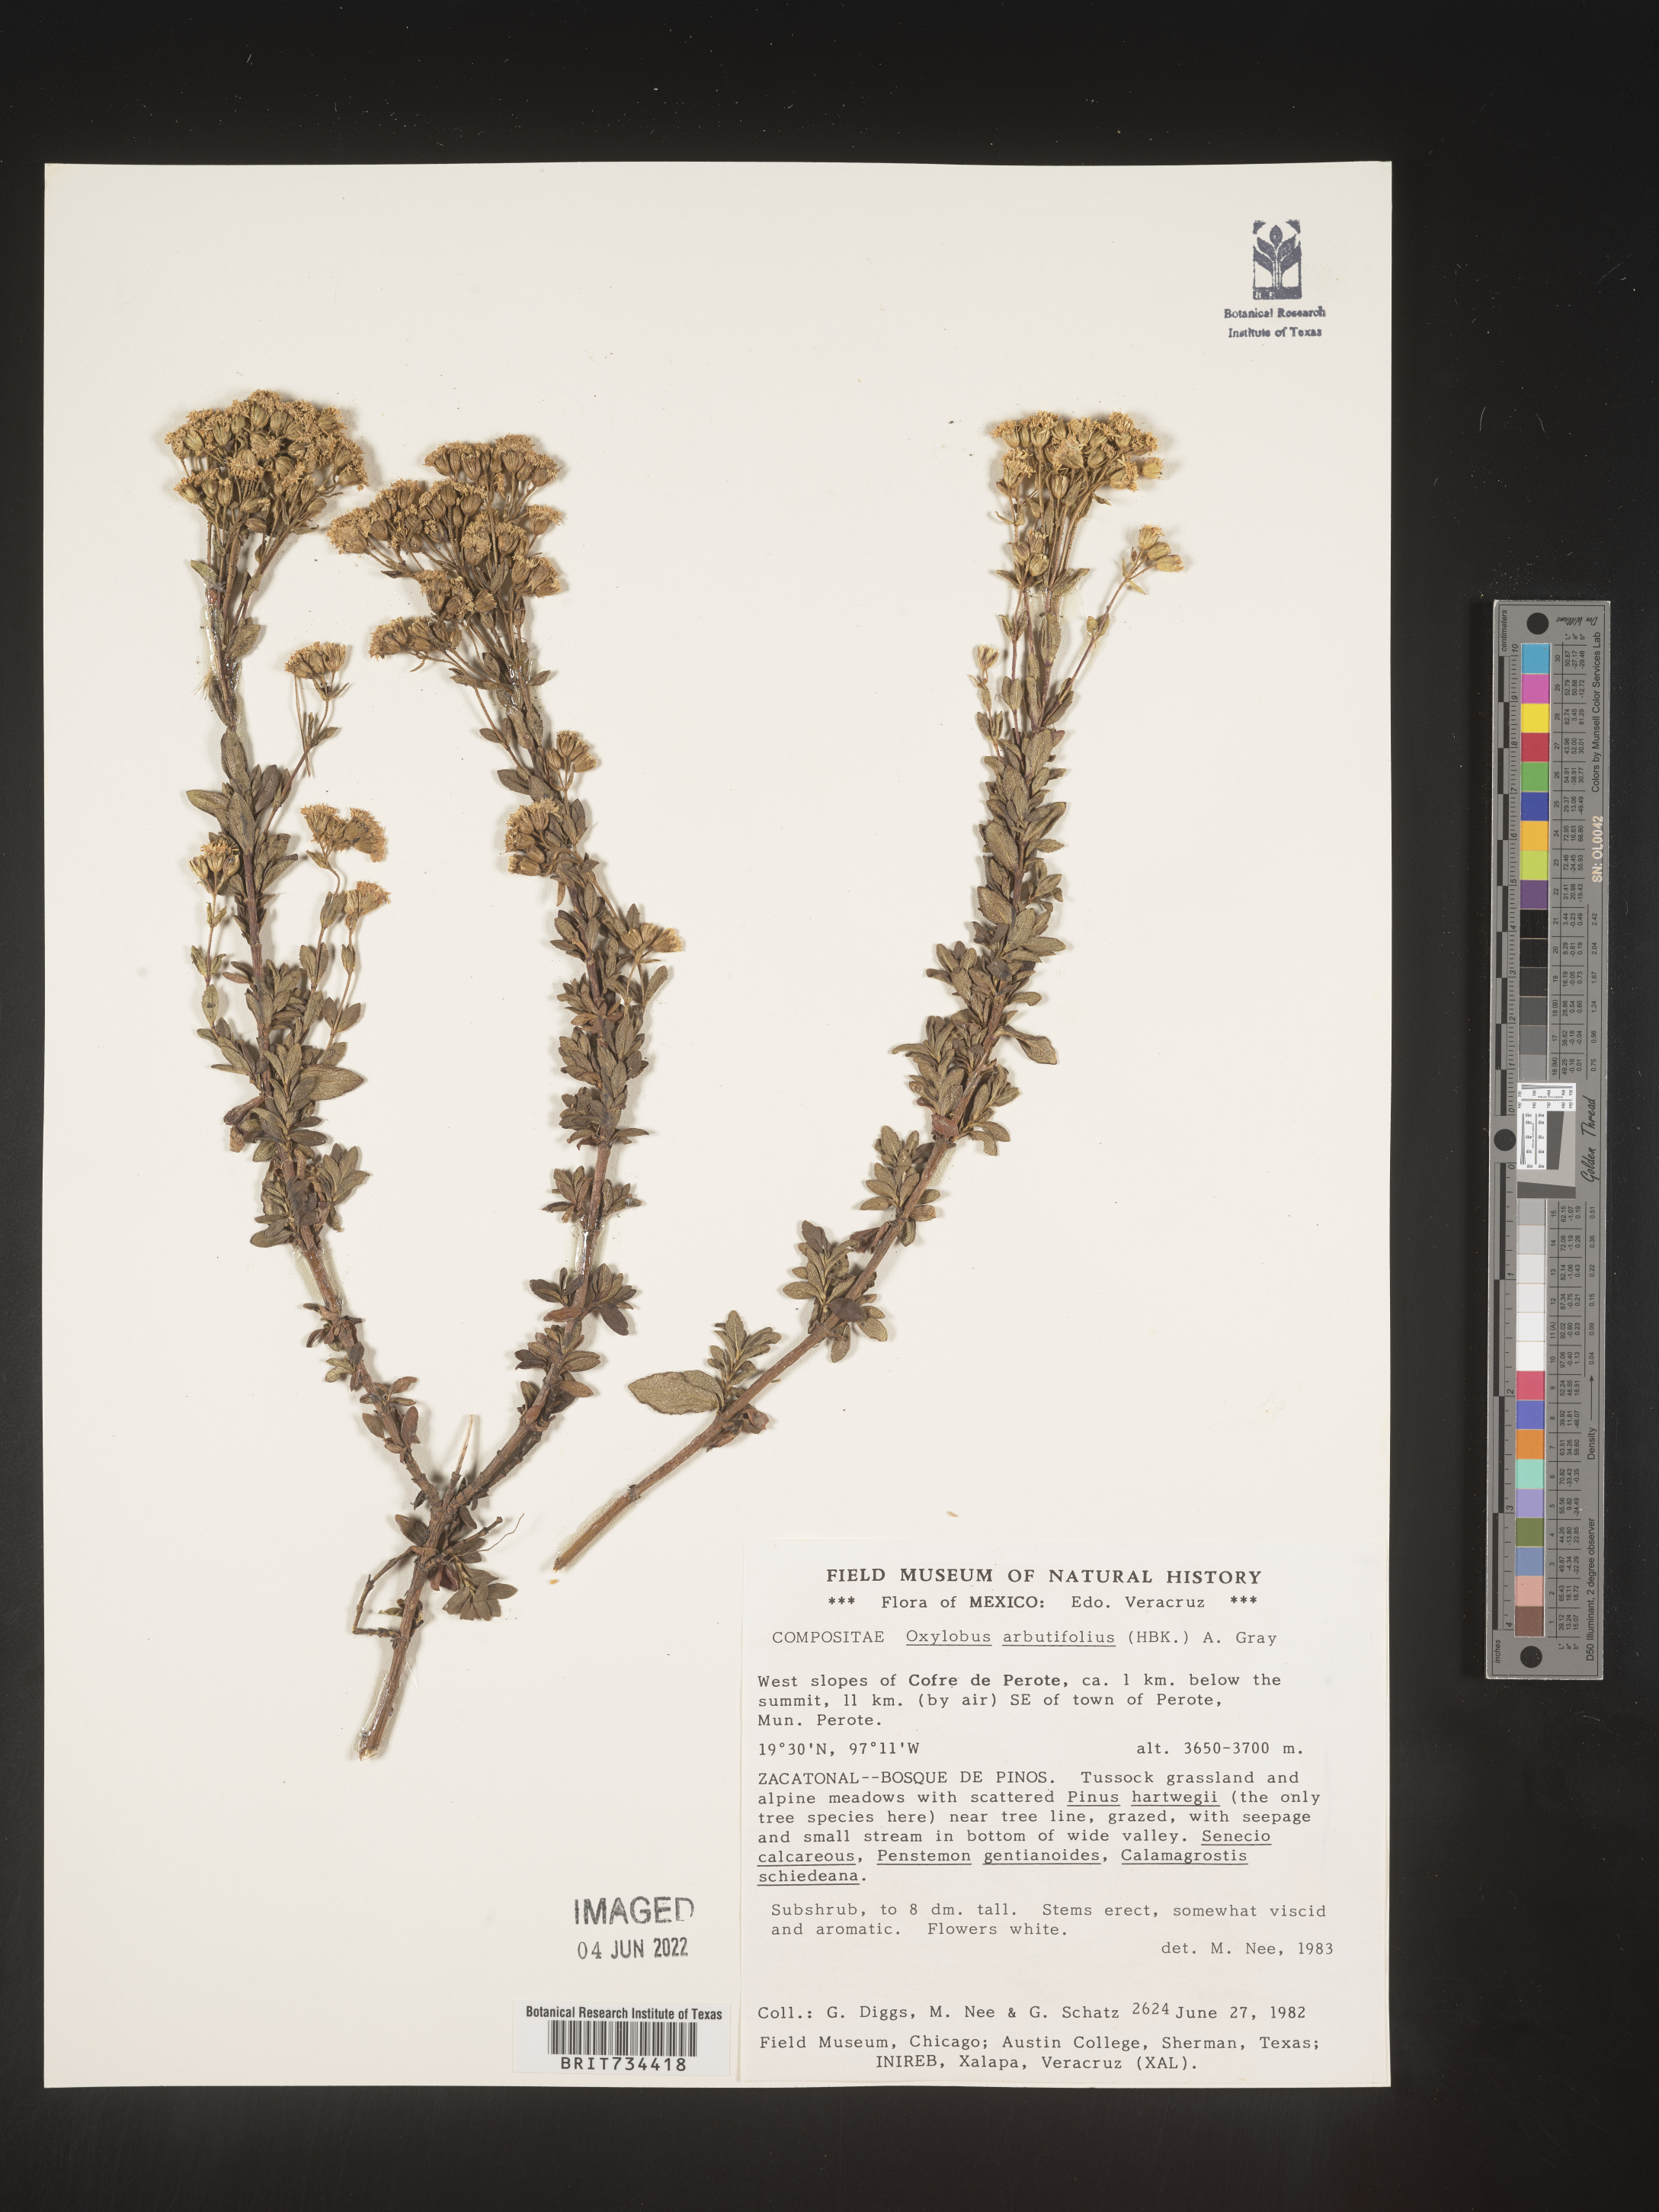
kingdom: Plantae
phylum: Tracheophyta
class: Magnoliopsida
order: Asterales
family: Asteraceae
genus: Oxylobus
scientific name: Oxylobus
